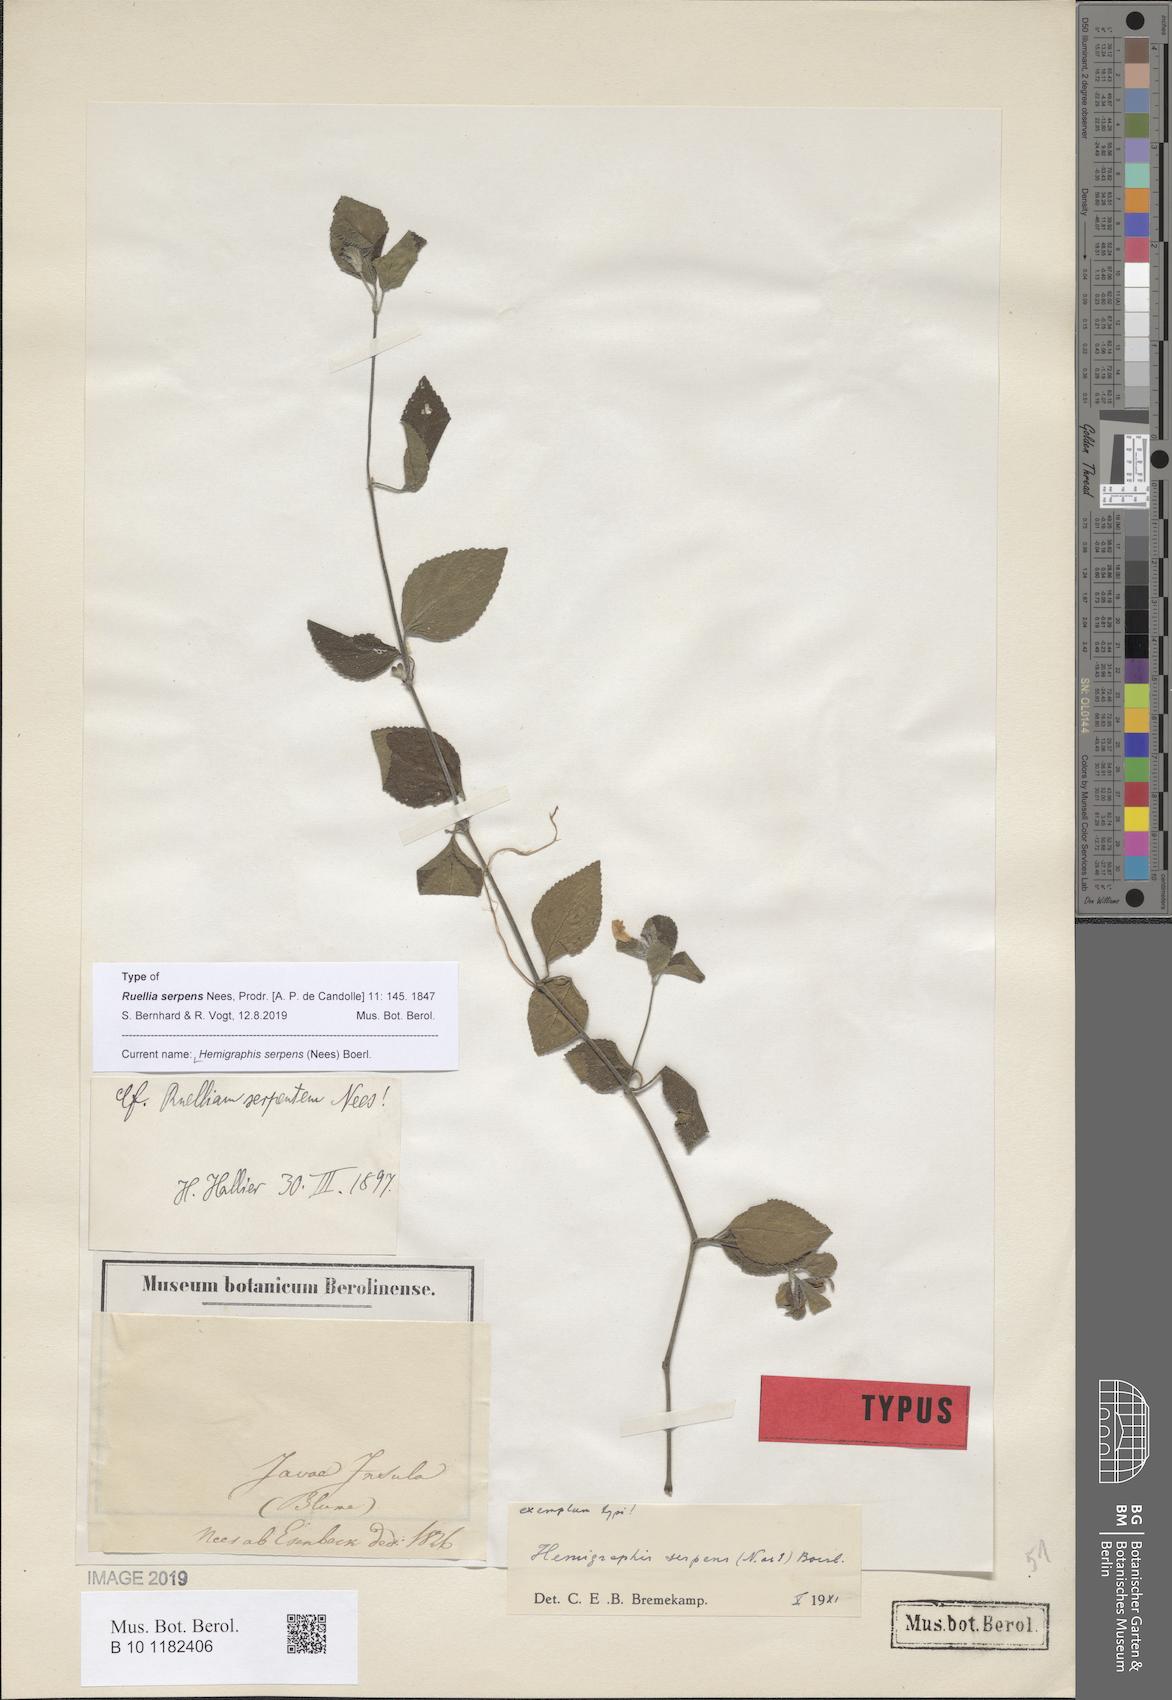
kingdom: Plantae
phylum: Tracheophyta
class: Magnoliopsida
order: Lamiales
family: Acanthaceae
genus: Strobilanthes
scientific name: Strobilanthes serpens
